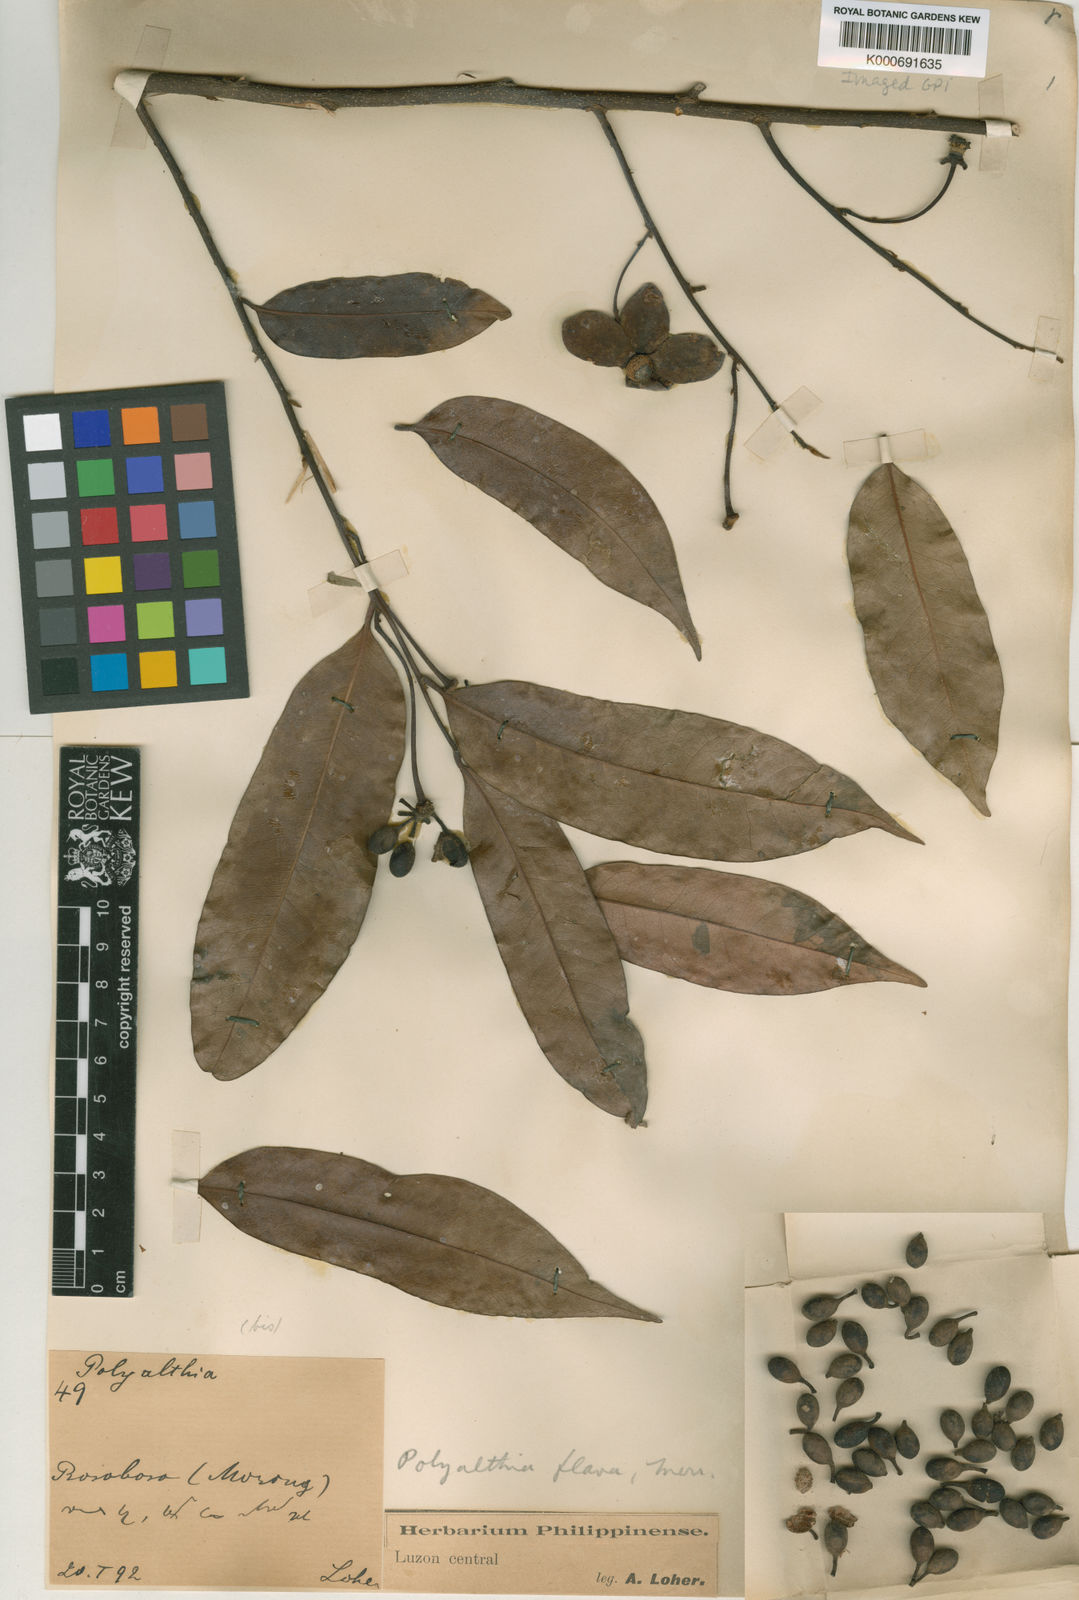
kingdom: Plantae
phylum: Tracheophyta
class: Magnoliopsida
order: Magnoliales
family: Annonaceae
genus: Polyalthia
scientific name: Polyalthia flava
